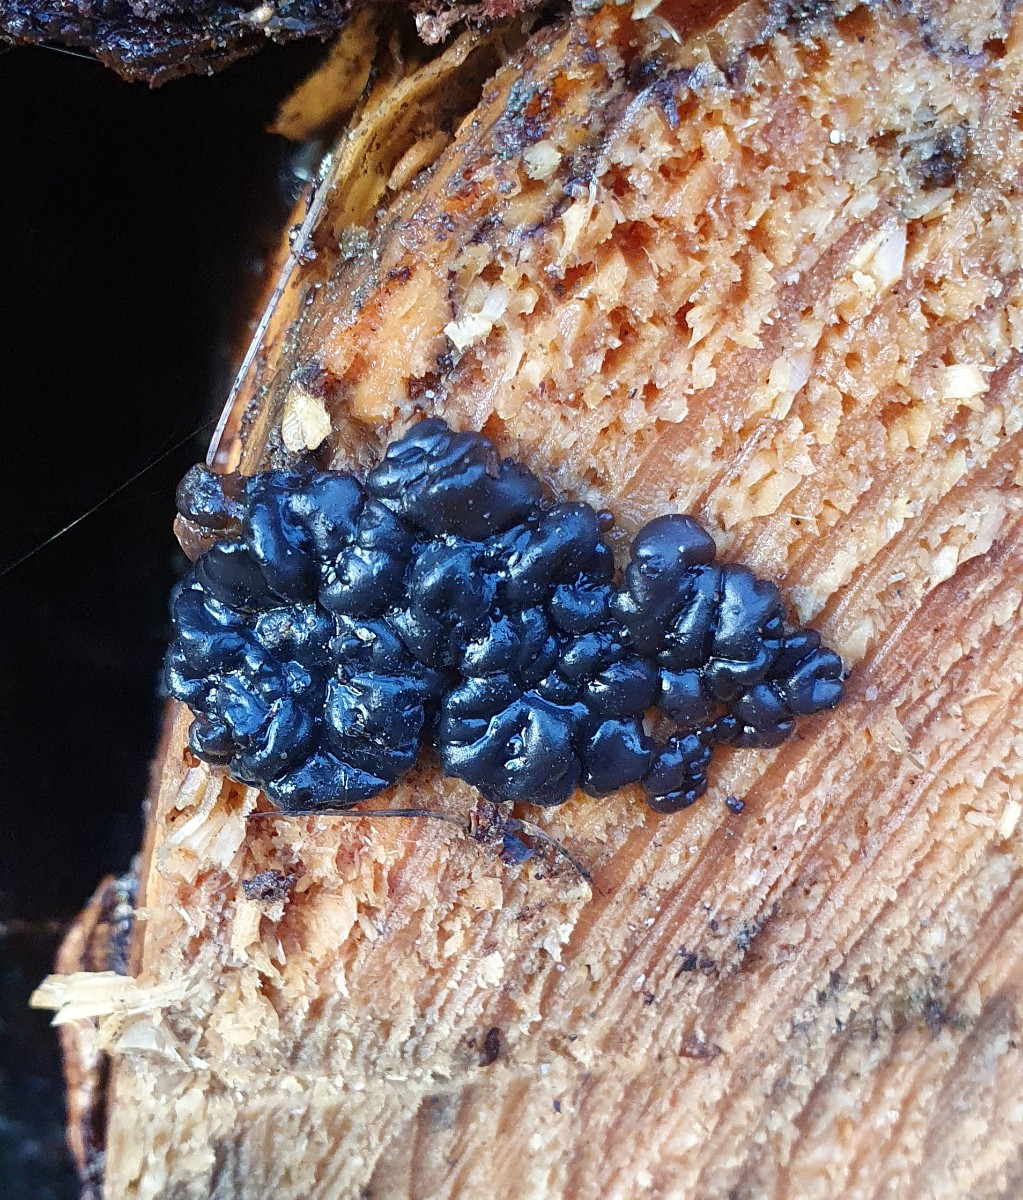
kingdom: Fungi
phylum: Basidiomycota
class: Agaricomycetes
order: Auriculariales
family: Auriculariaceae
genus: Exidia
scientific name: Exidia pithya
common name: gran-bævretop
